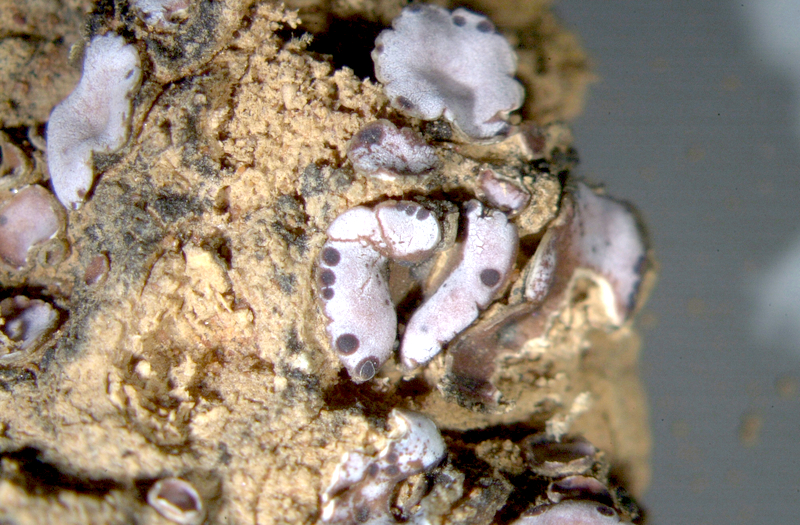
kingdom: Fungi
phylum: Ascomycota
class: Lecanoromycetes
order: Lecanorales
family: Psoraceae
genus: Psora
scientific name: Psora crenata
